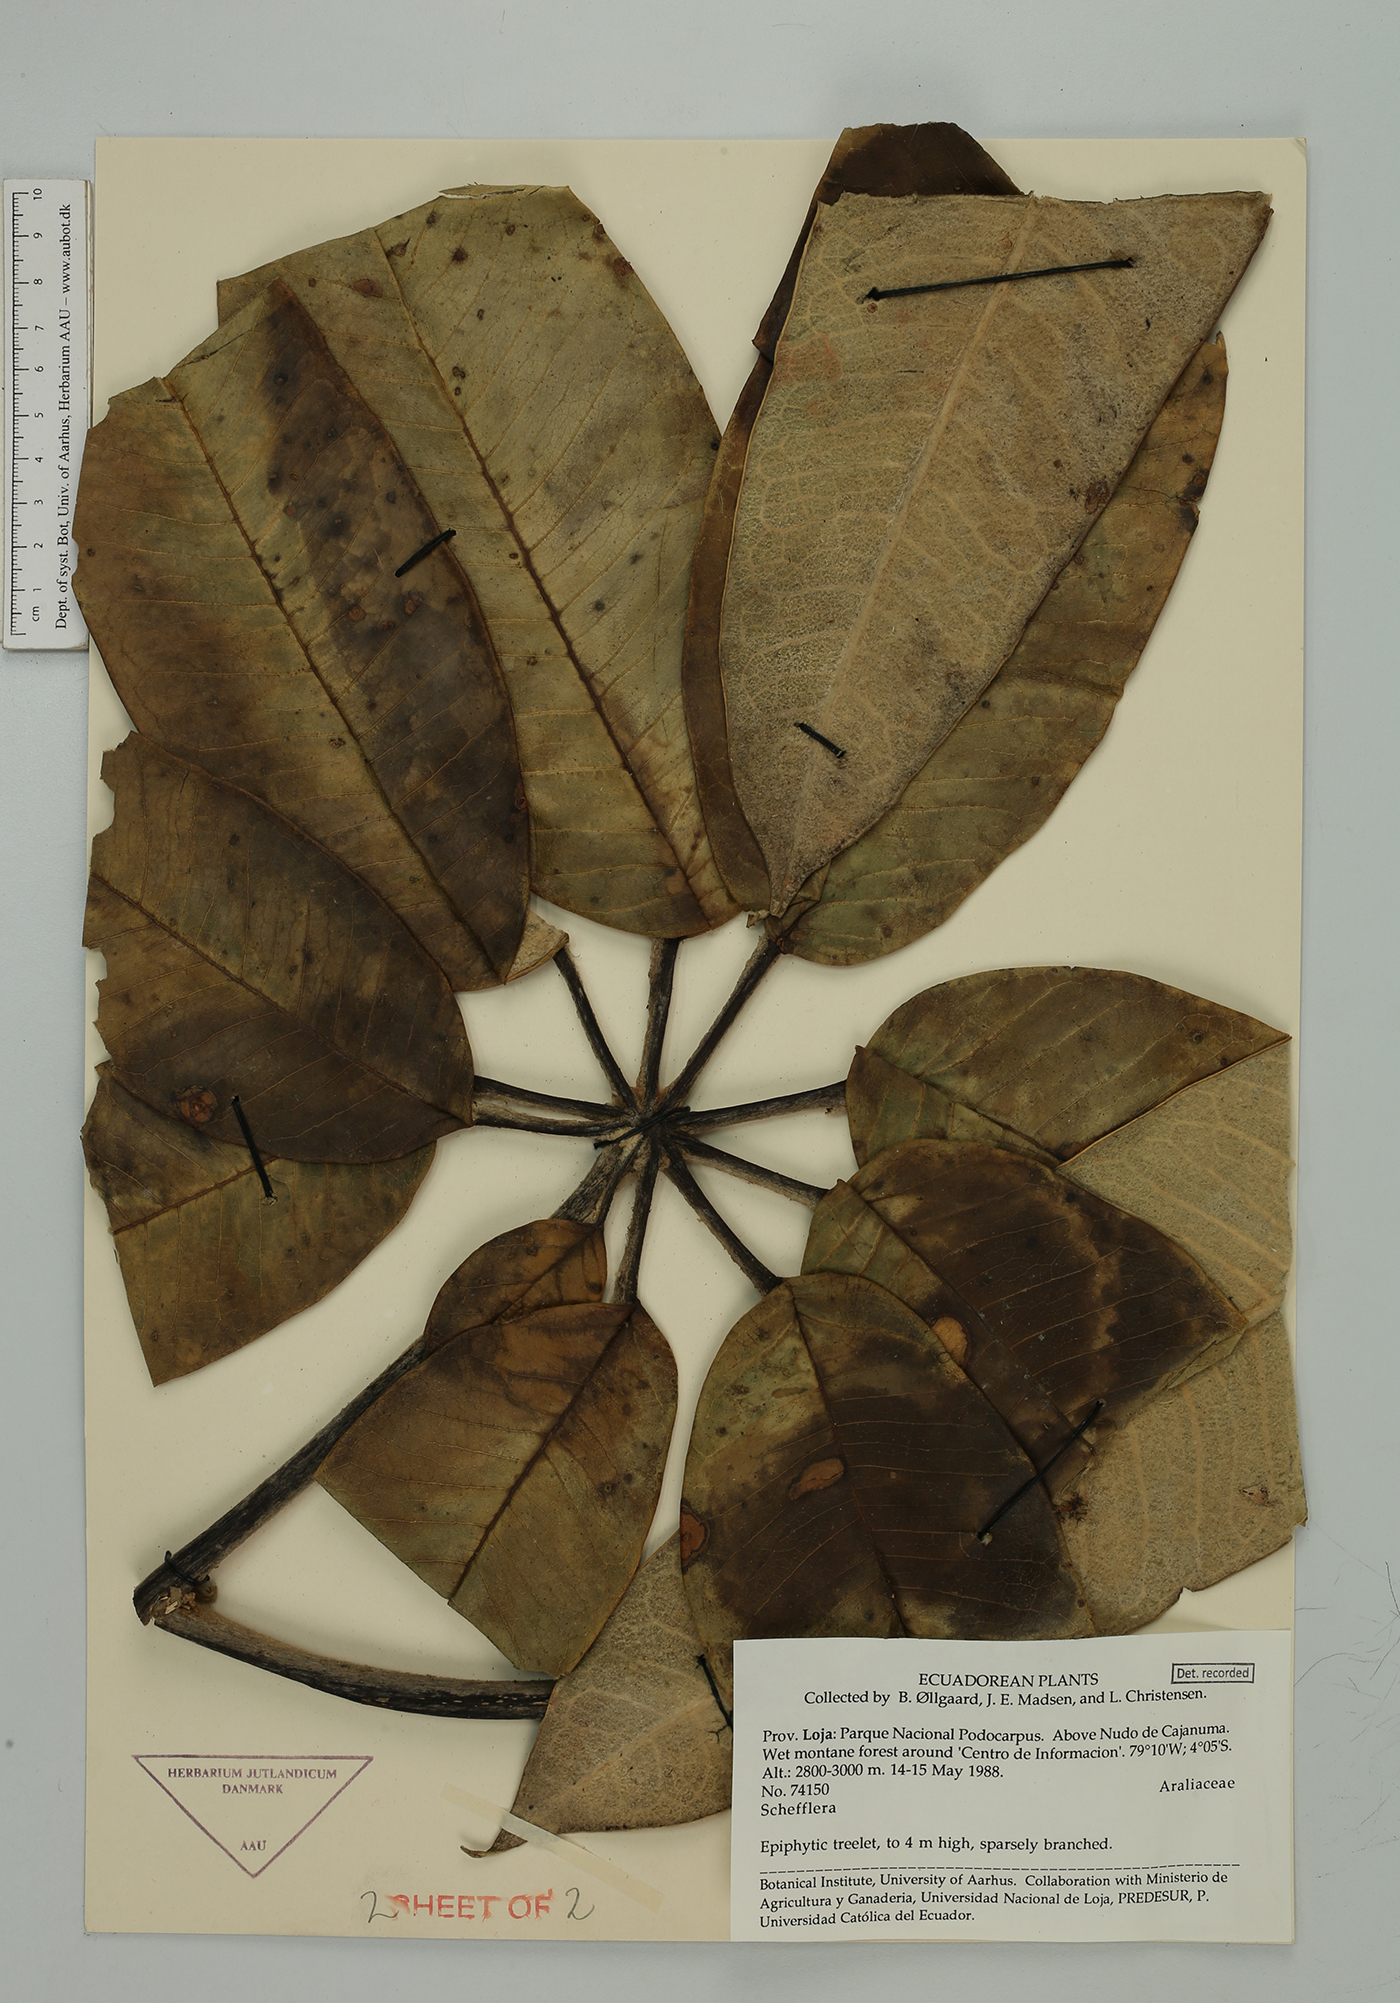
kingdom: Plantae
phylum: Tracheophyta
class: Magnoliopsida
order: Apiales
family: Araliaceae
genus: Sciodaphyllum
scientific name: Sciodaphyllum
